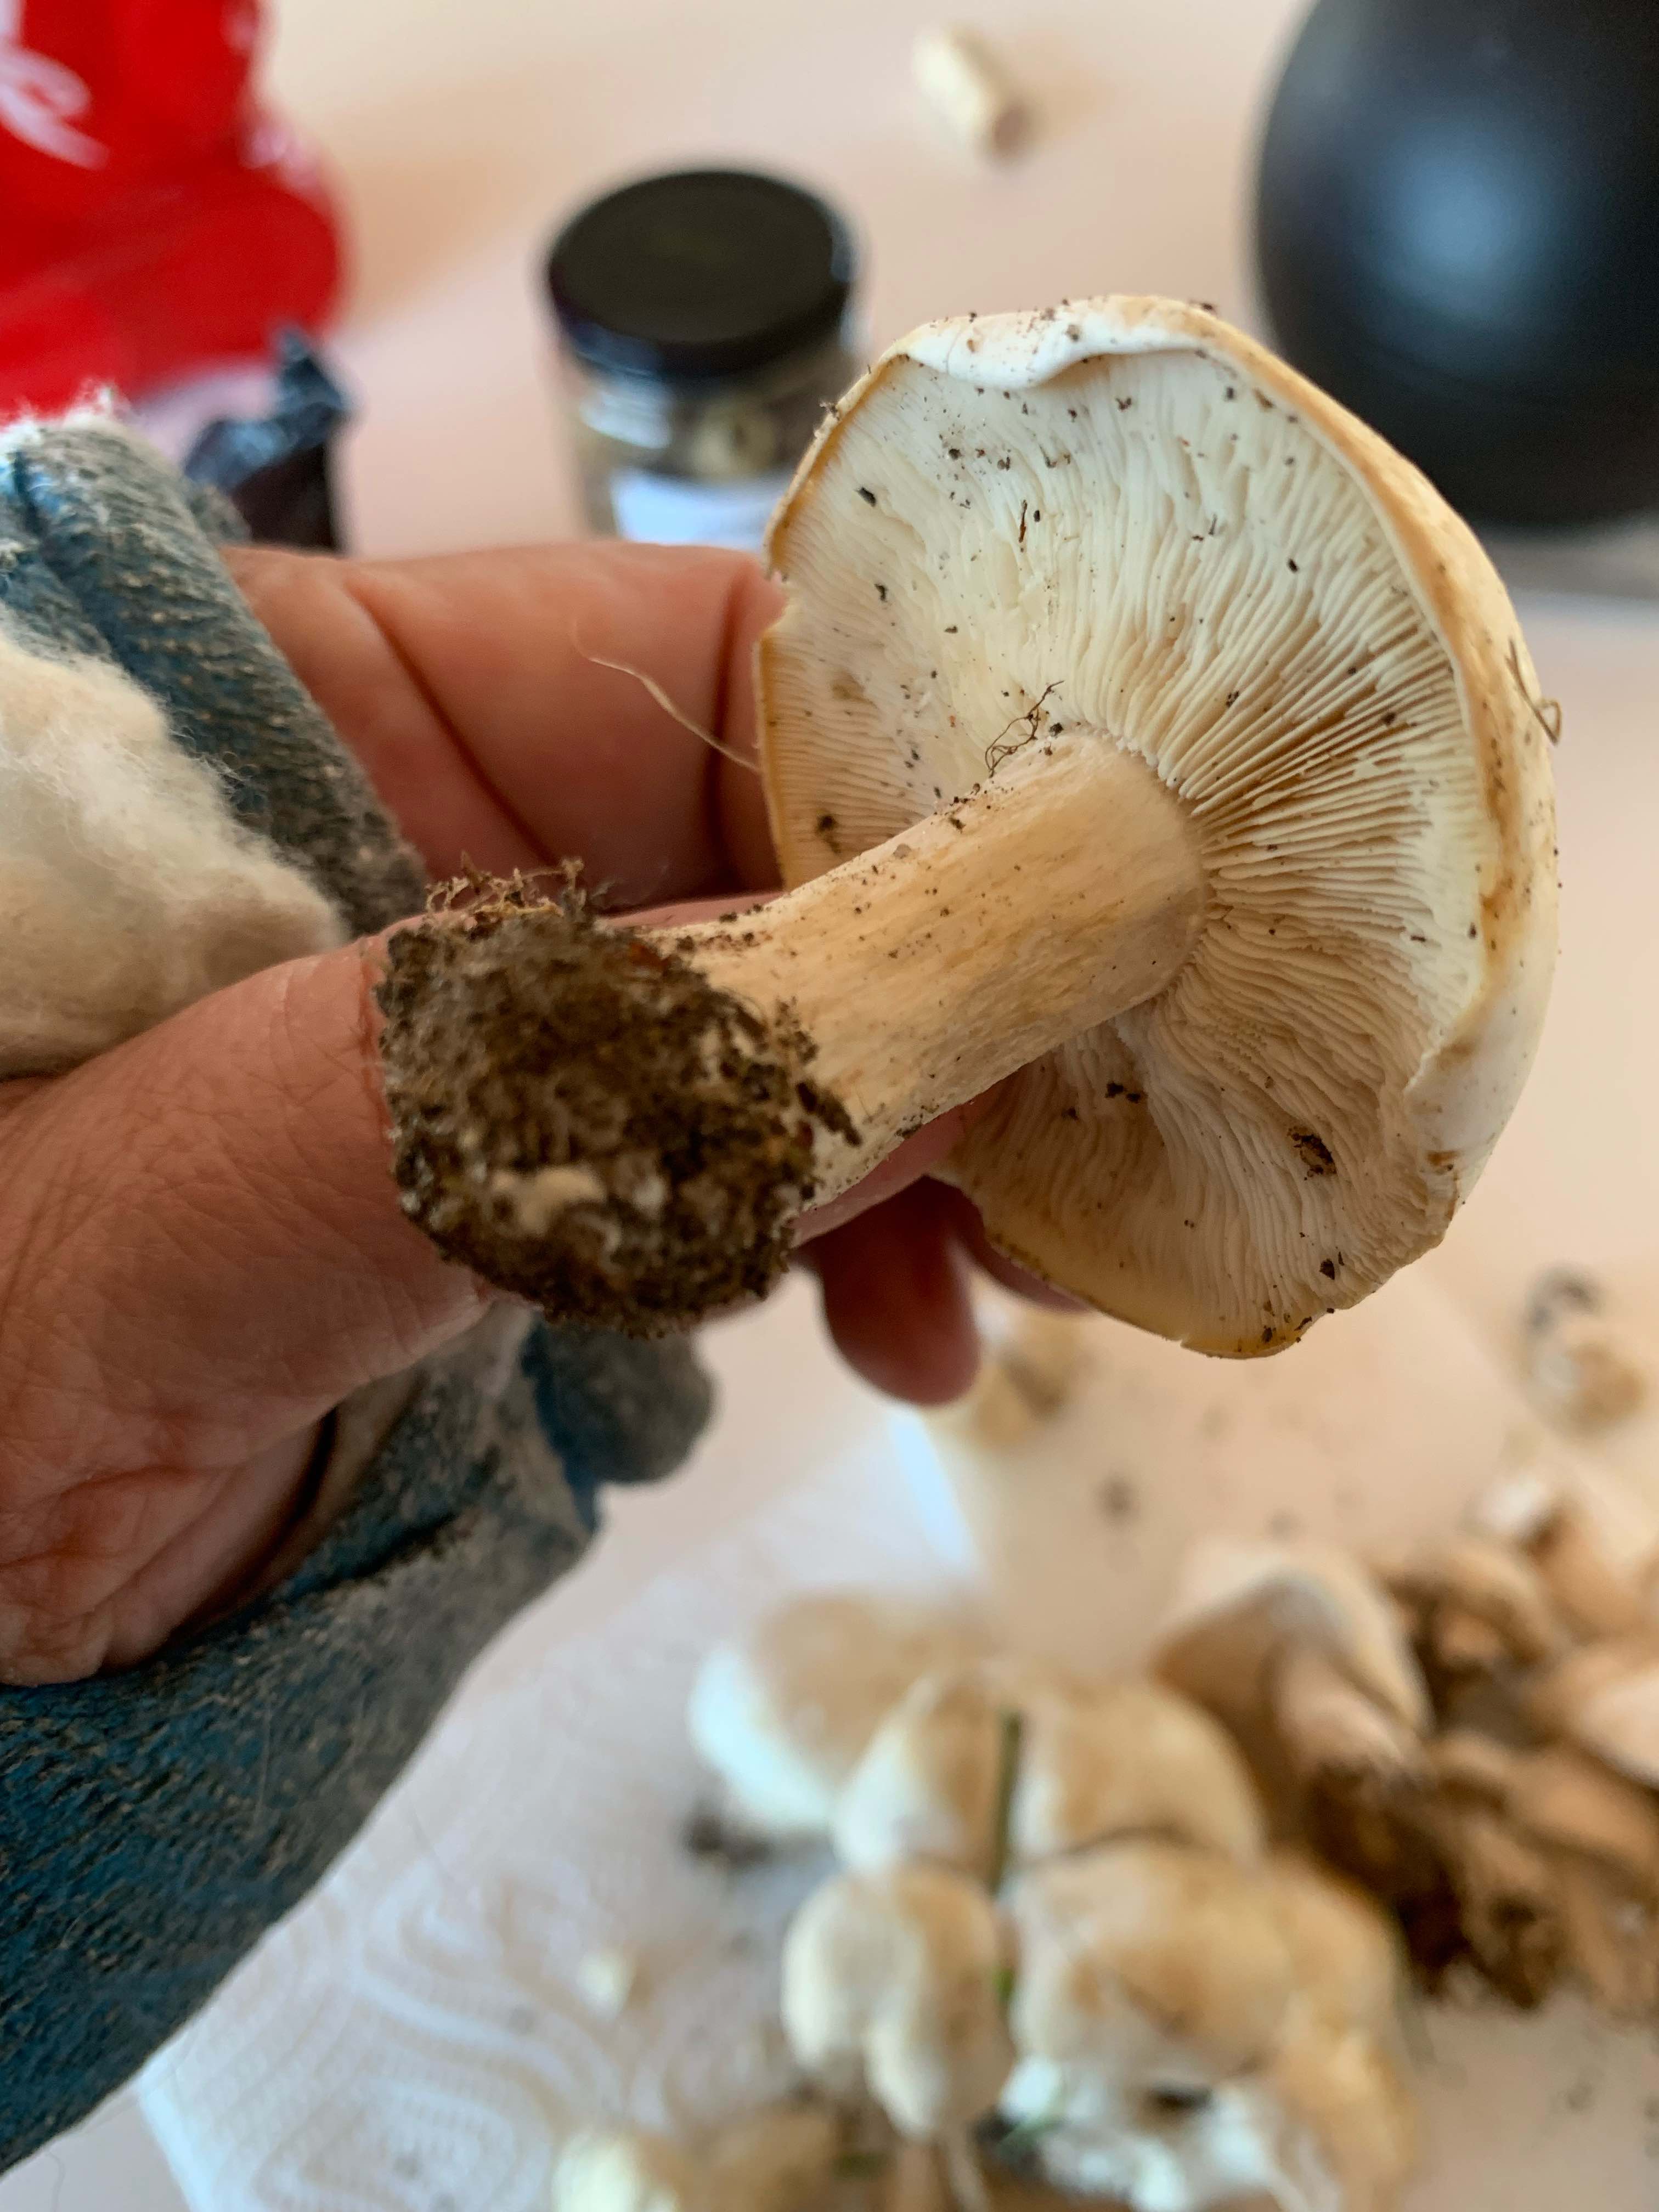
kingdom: Fungi
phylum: Basidiomycota
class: Agaricomycetes
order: Agaricales
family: Lyophyllaceae
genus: Calocybe
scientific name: Calocybe gambosa
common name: vårmusseron
